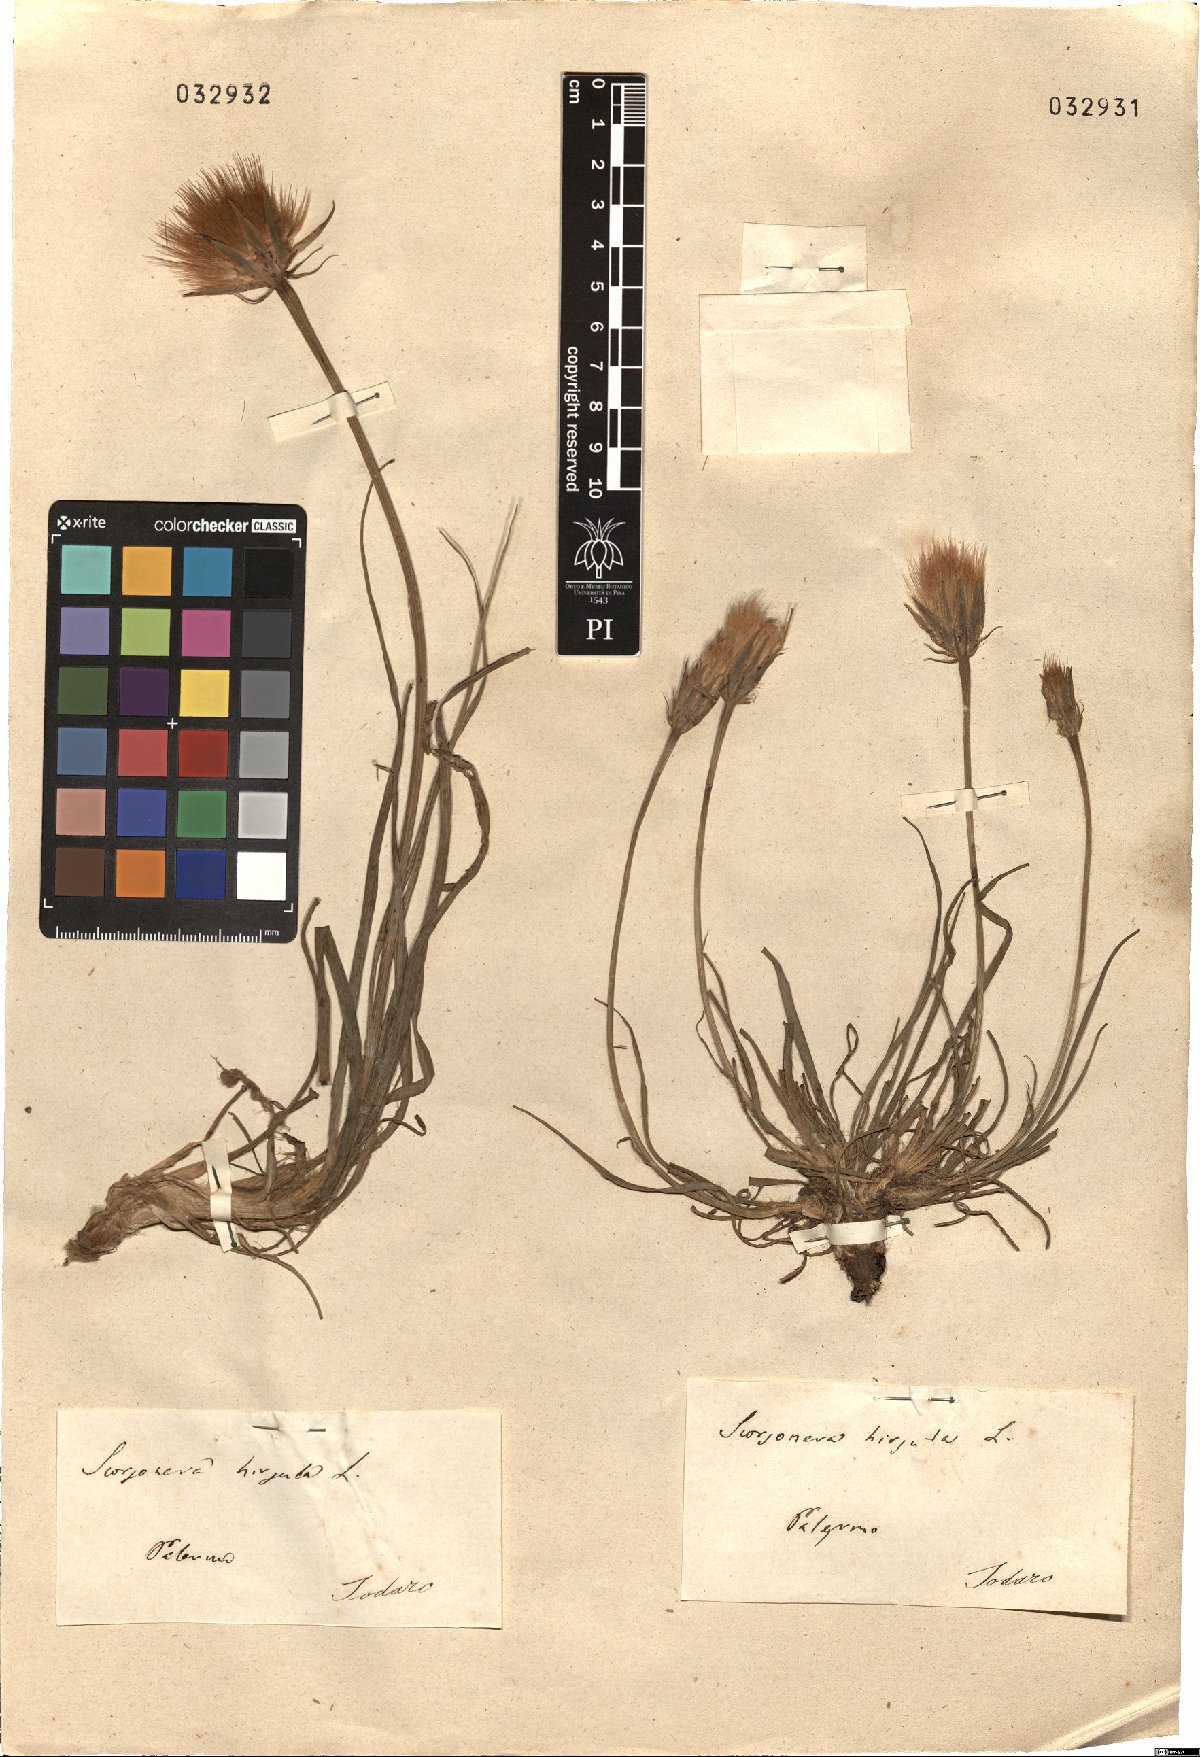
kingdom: Plantae
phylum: Tracheophyta
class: Magnoliopsida
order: Asterales
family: Asteraceae
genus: Gelasia
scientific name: Gelasia hirsuta
